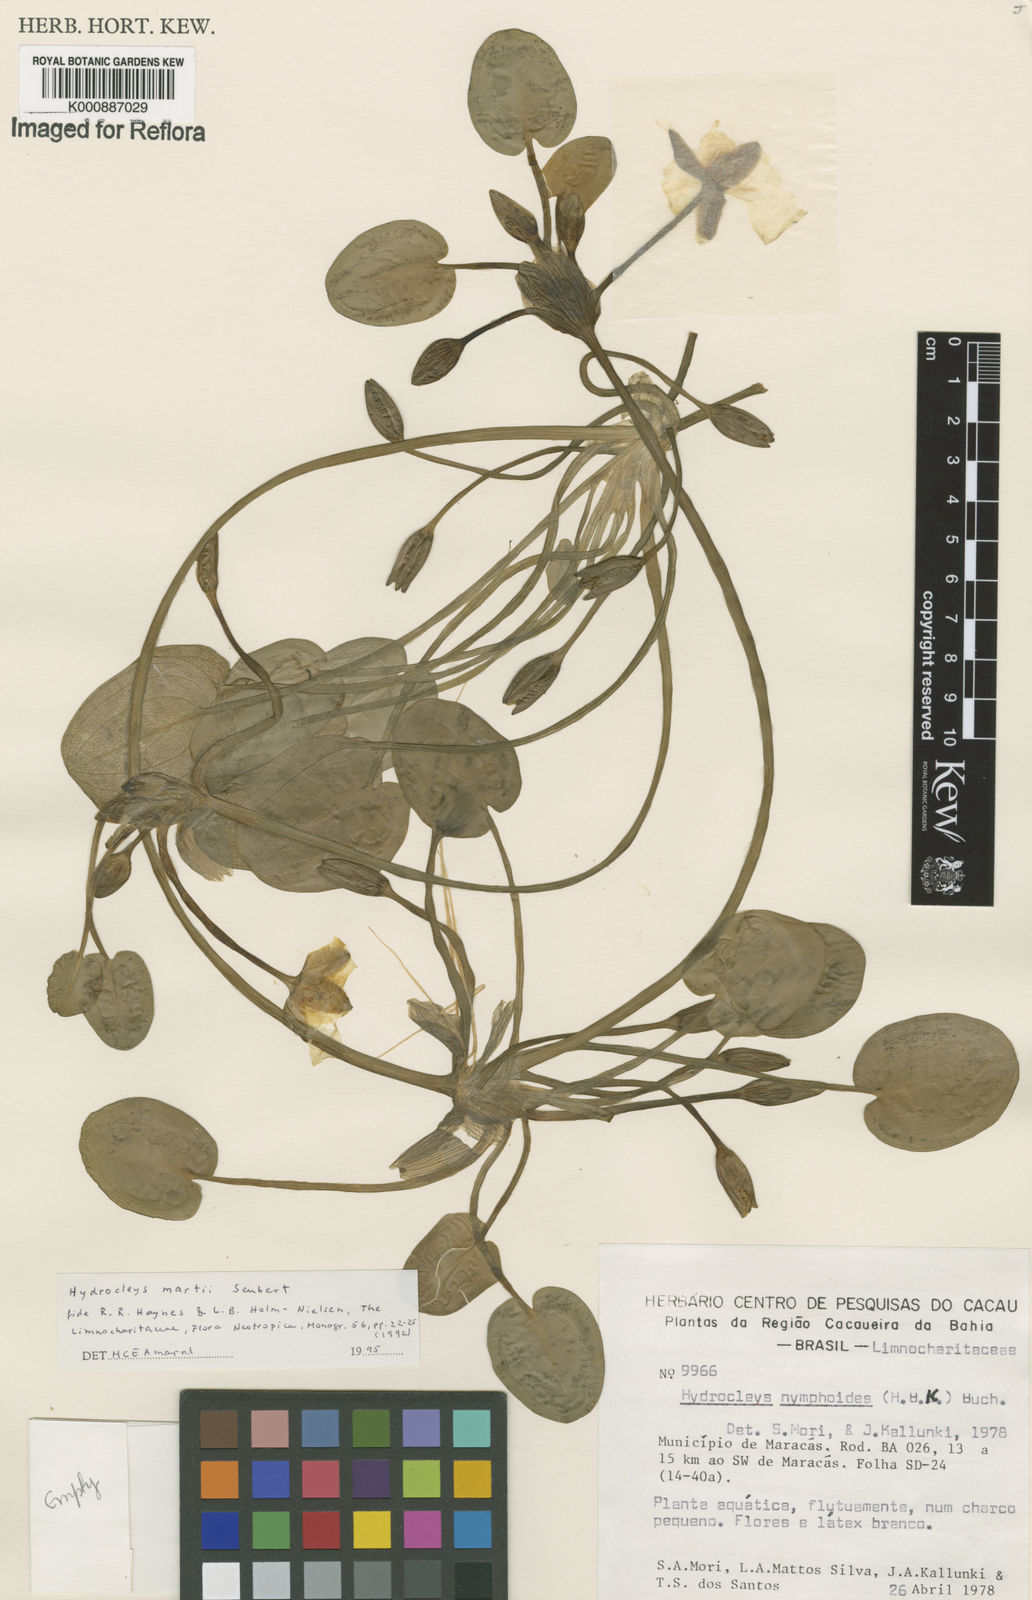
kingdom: Plantae
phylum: Tracheophyta
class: Liliopsida
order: Alismatales
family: Alismataceae
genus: Hydrocleys
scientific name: Hydrocleys martii
